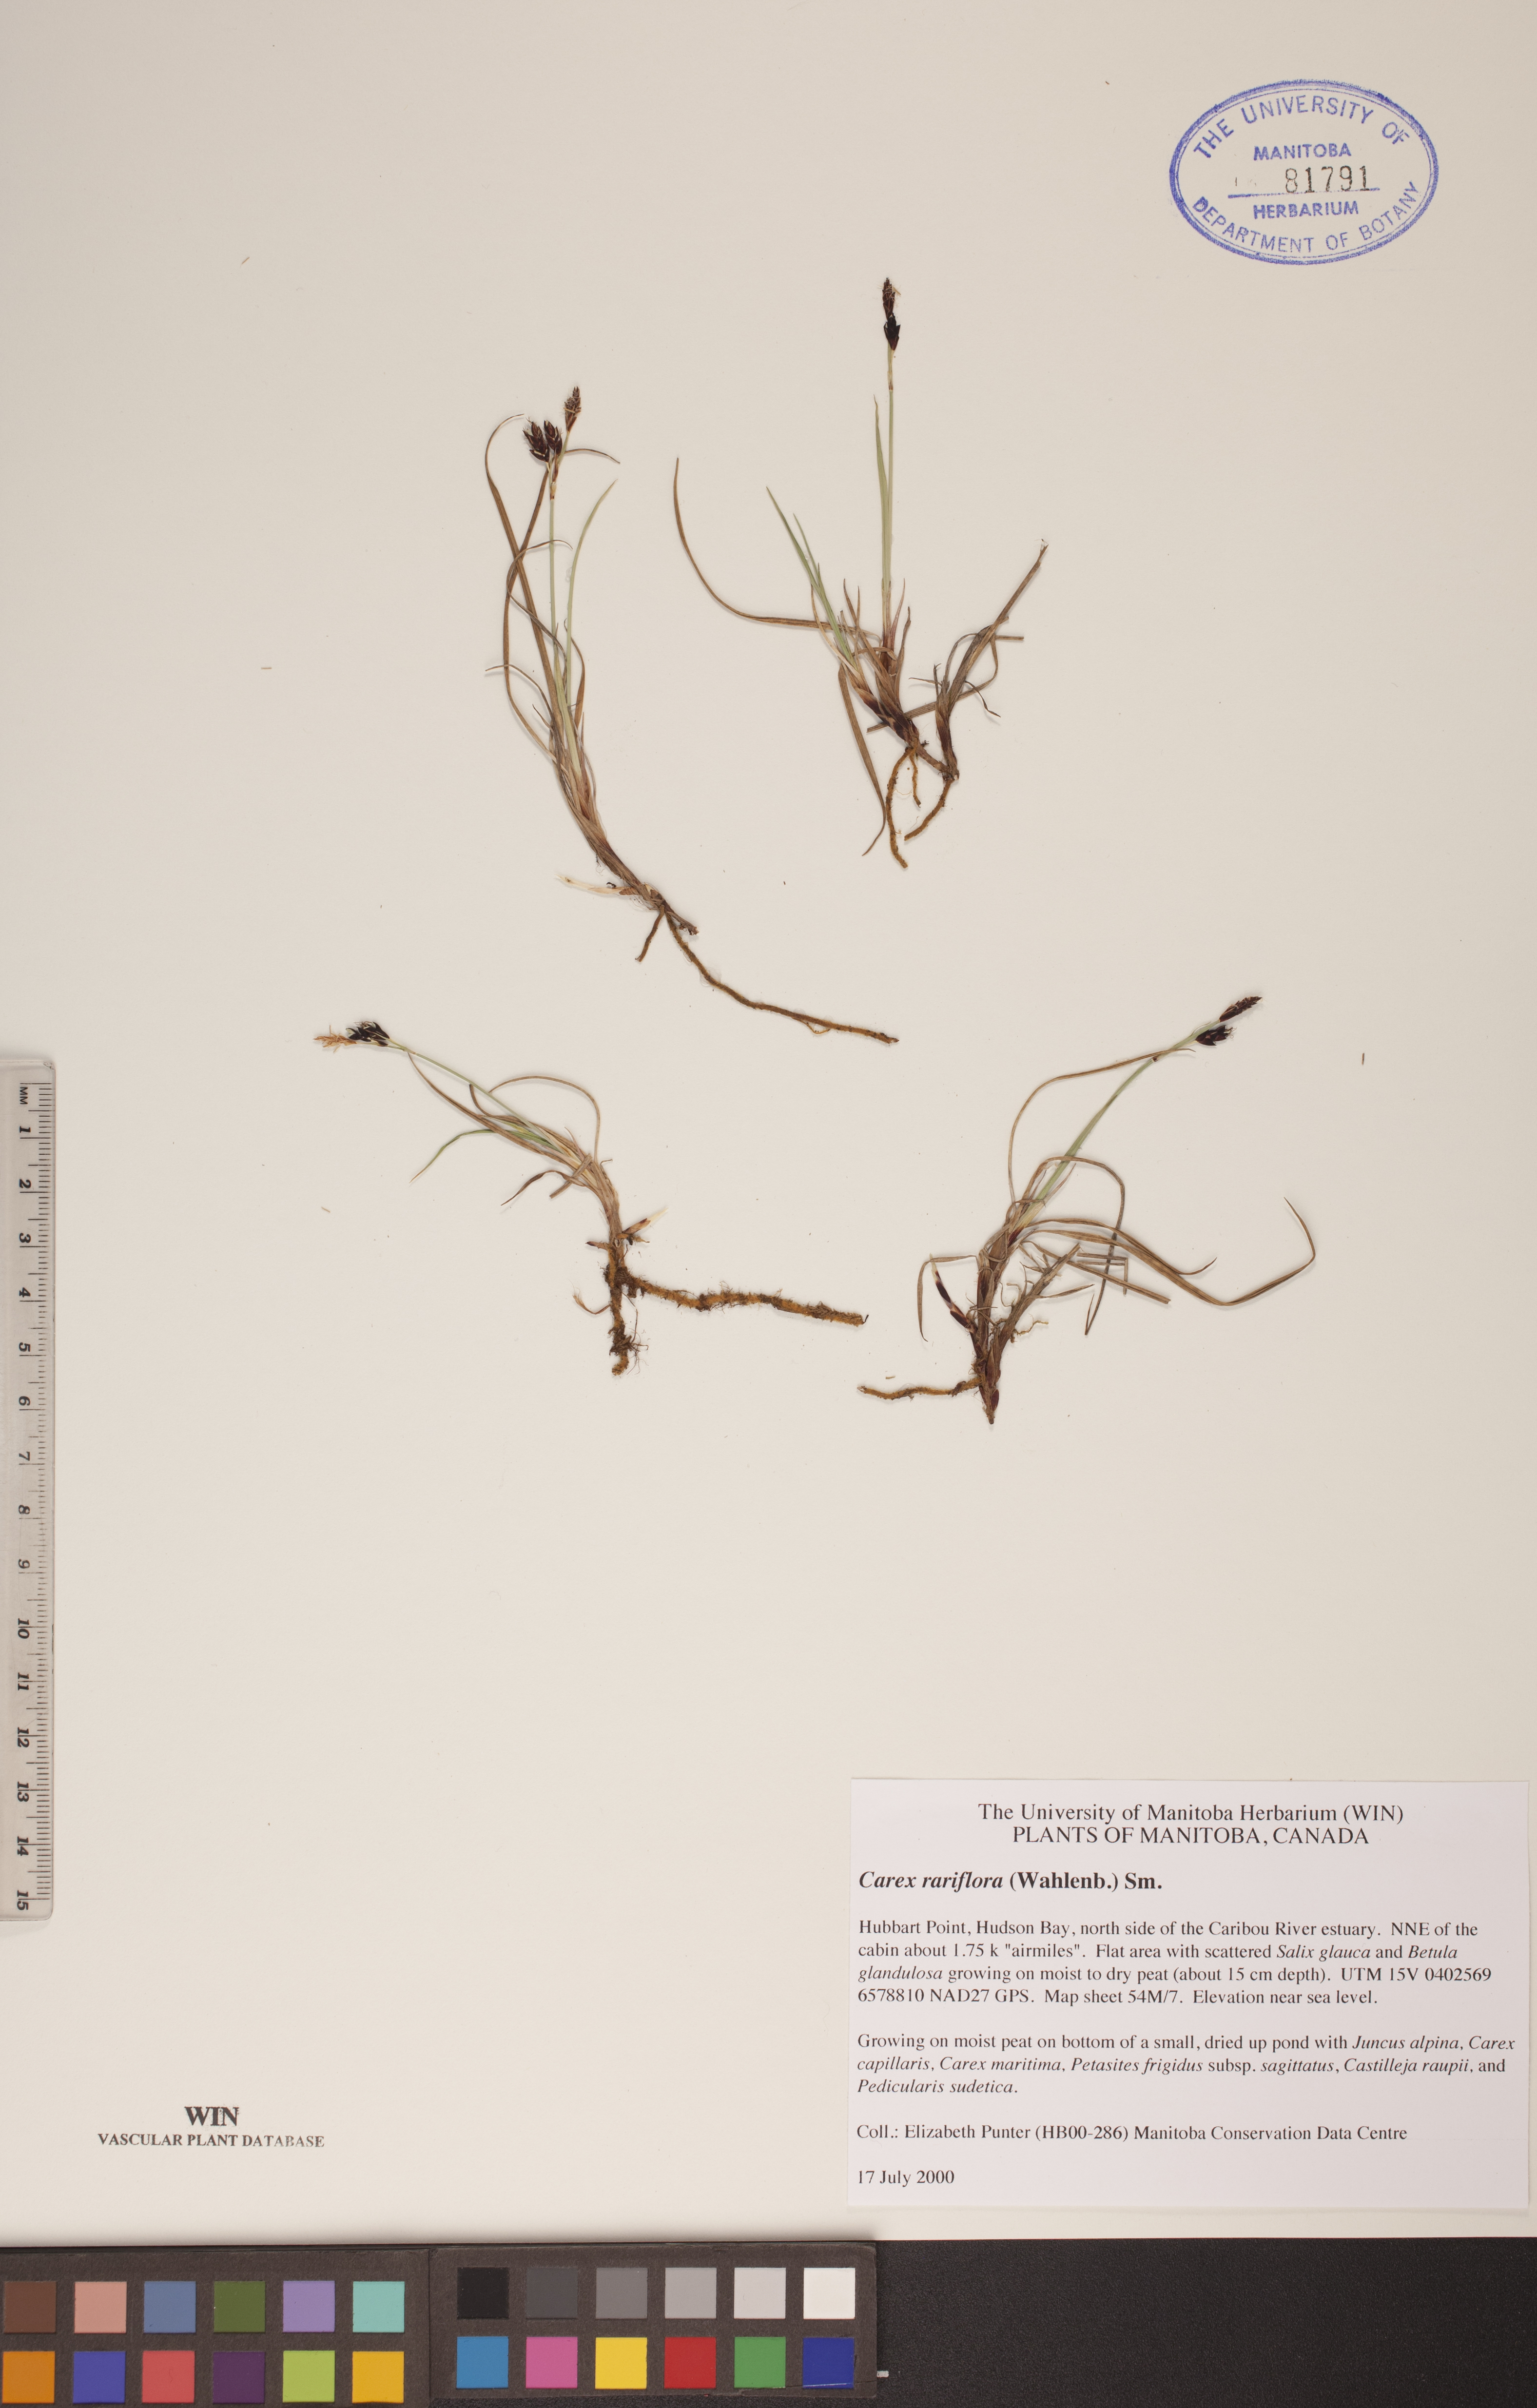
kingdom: Plantae
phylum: Tracheophyta
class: Liliopsida
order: Poales
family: Cyperaceae
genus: Carex
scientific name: Carex rariflora
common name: Loose-flowered alpine sedge
